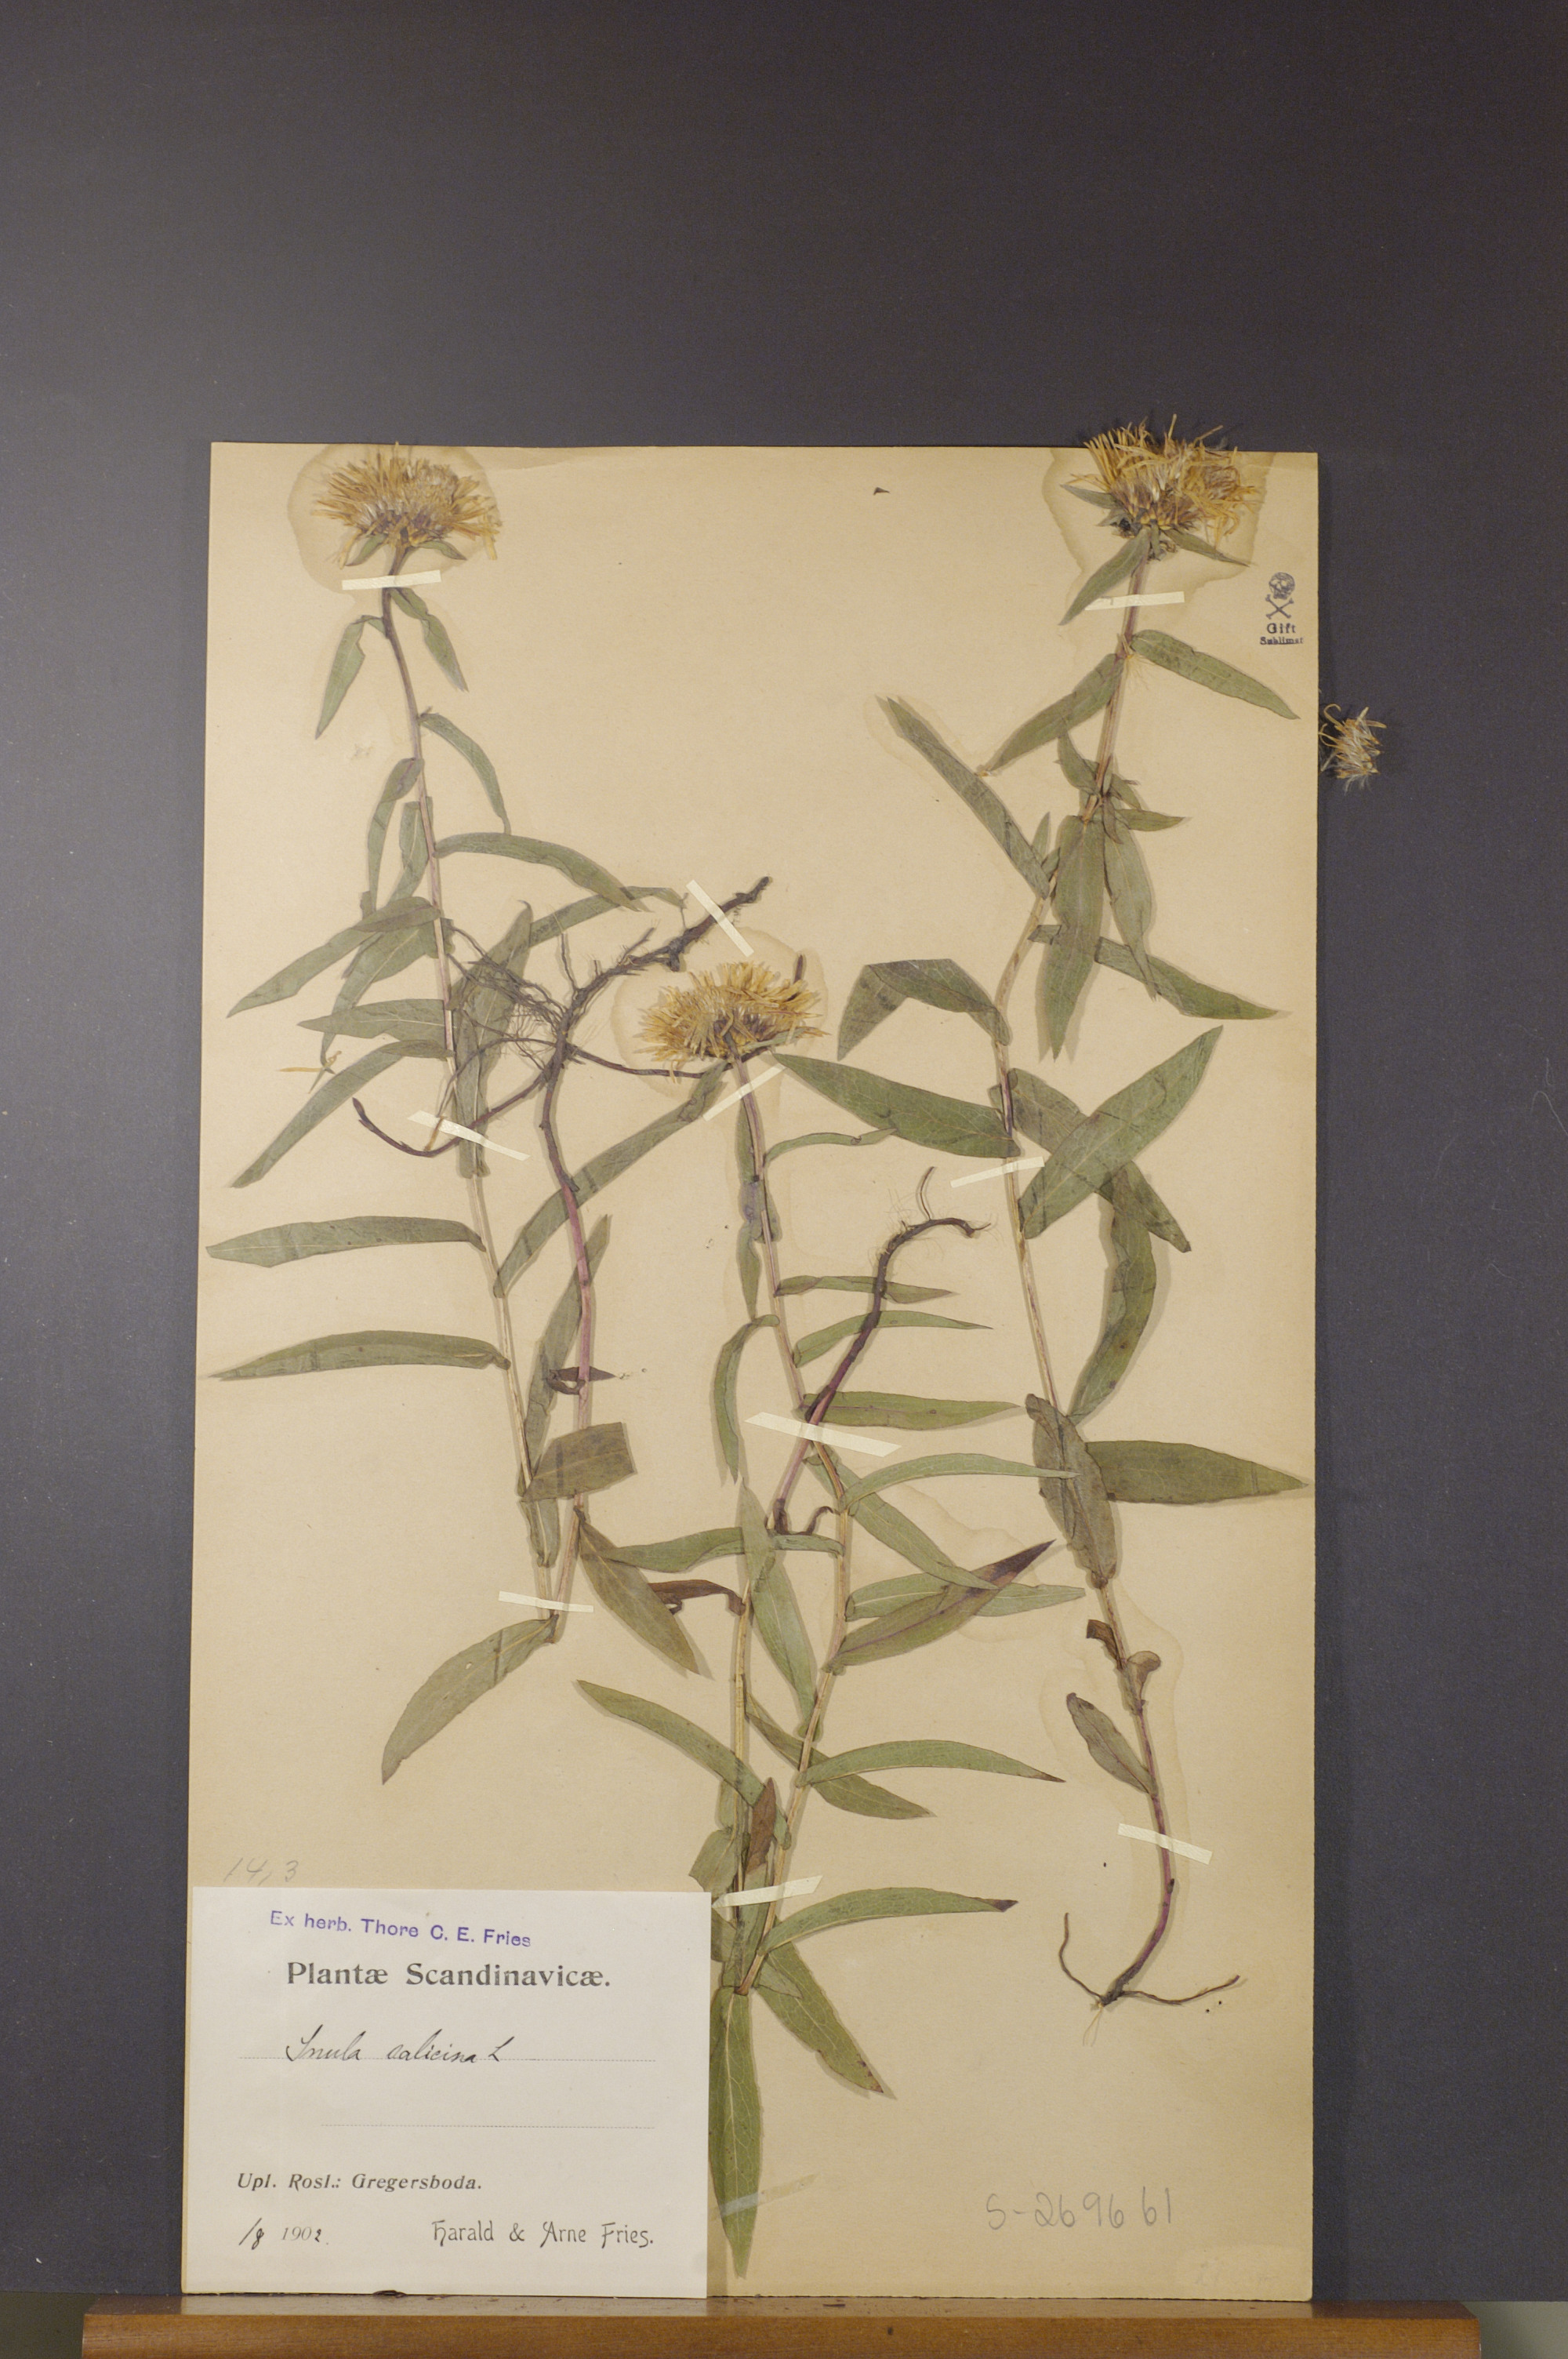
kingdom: Plantae
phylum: Tracheophyta
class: Magnoliopsida
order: Asterales
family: Asteraceae
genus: Pentanema
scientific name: Pentanema salicinum
